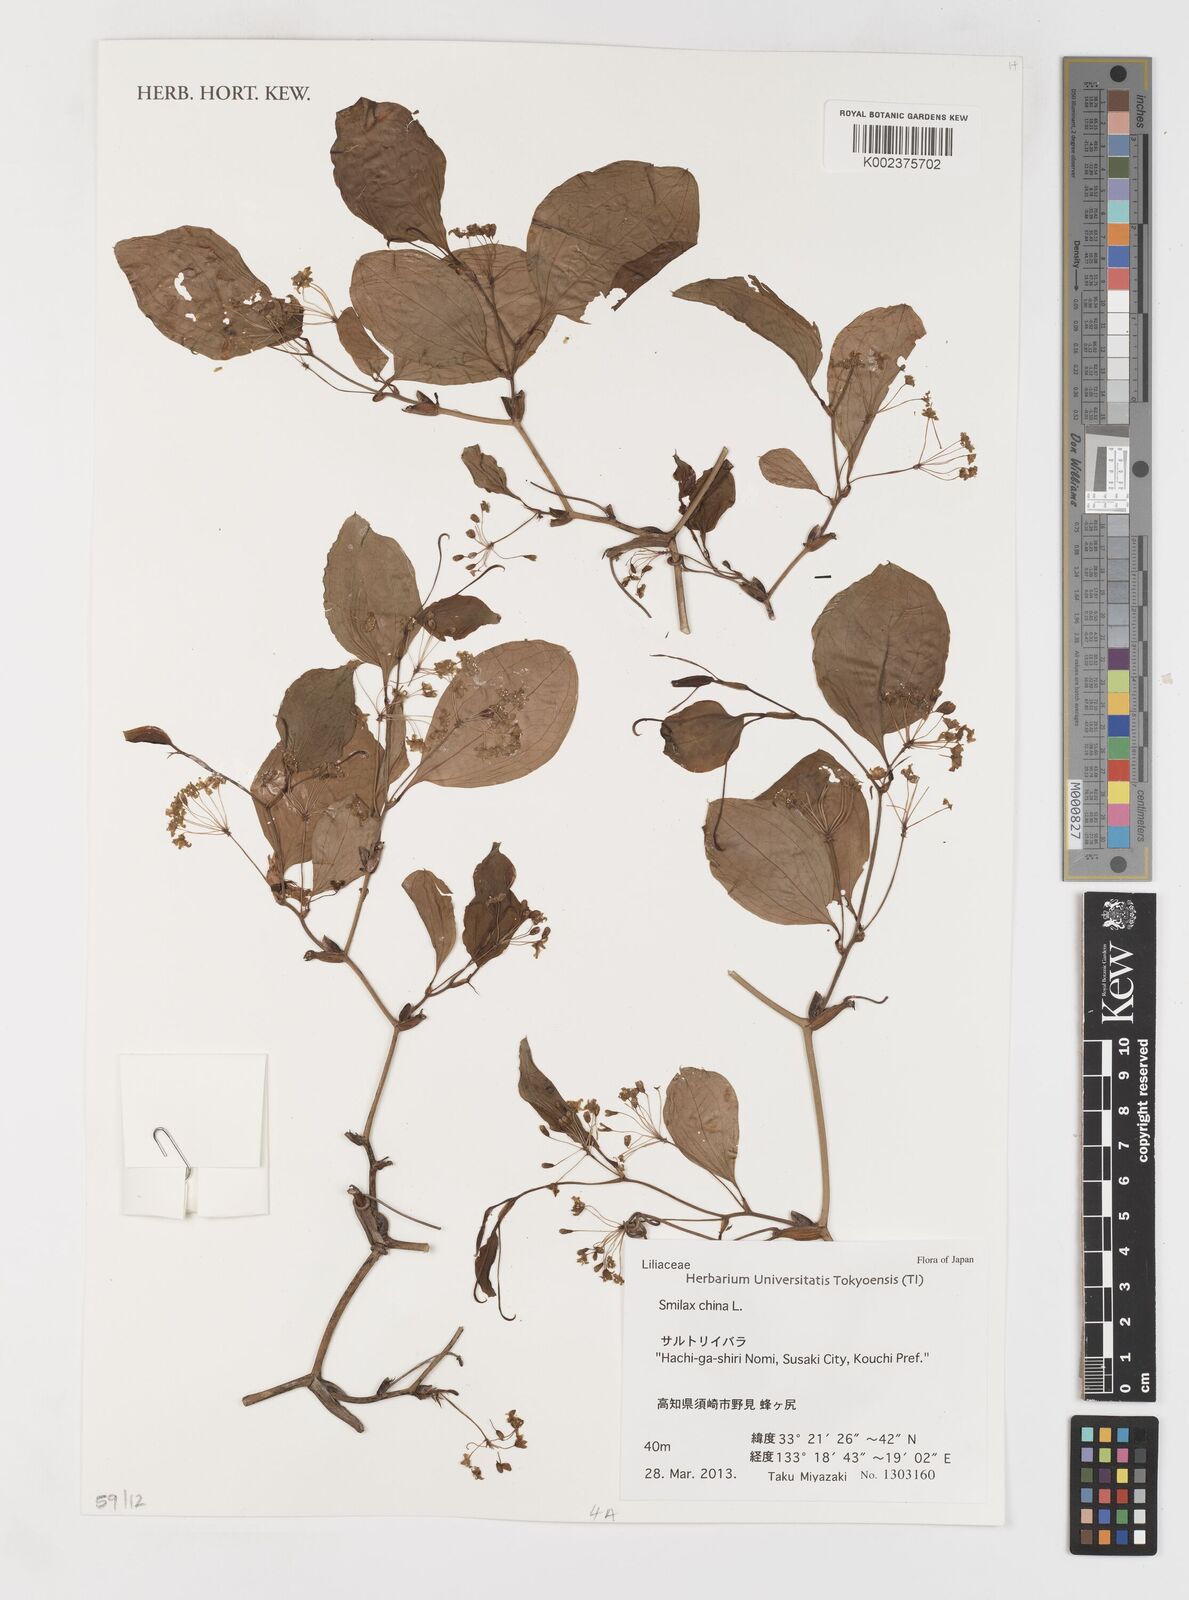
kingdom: Plantae
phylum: Tracheophyta
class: Liliopsida
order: Liliales
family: Smilacaceae
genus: Smilax
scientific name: Smilax china
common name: Chinaroot
